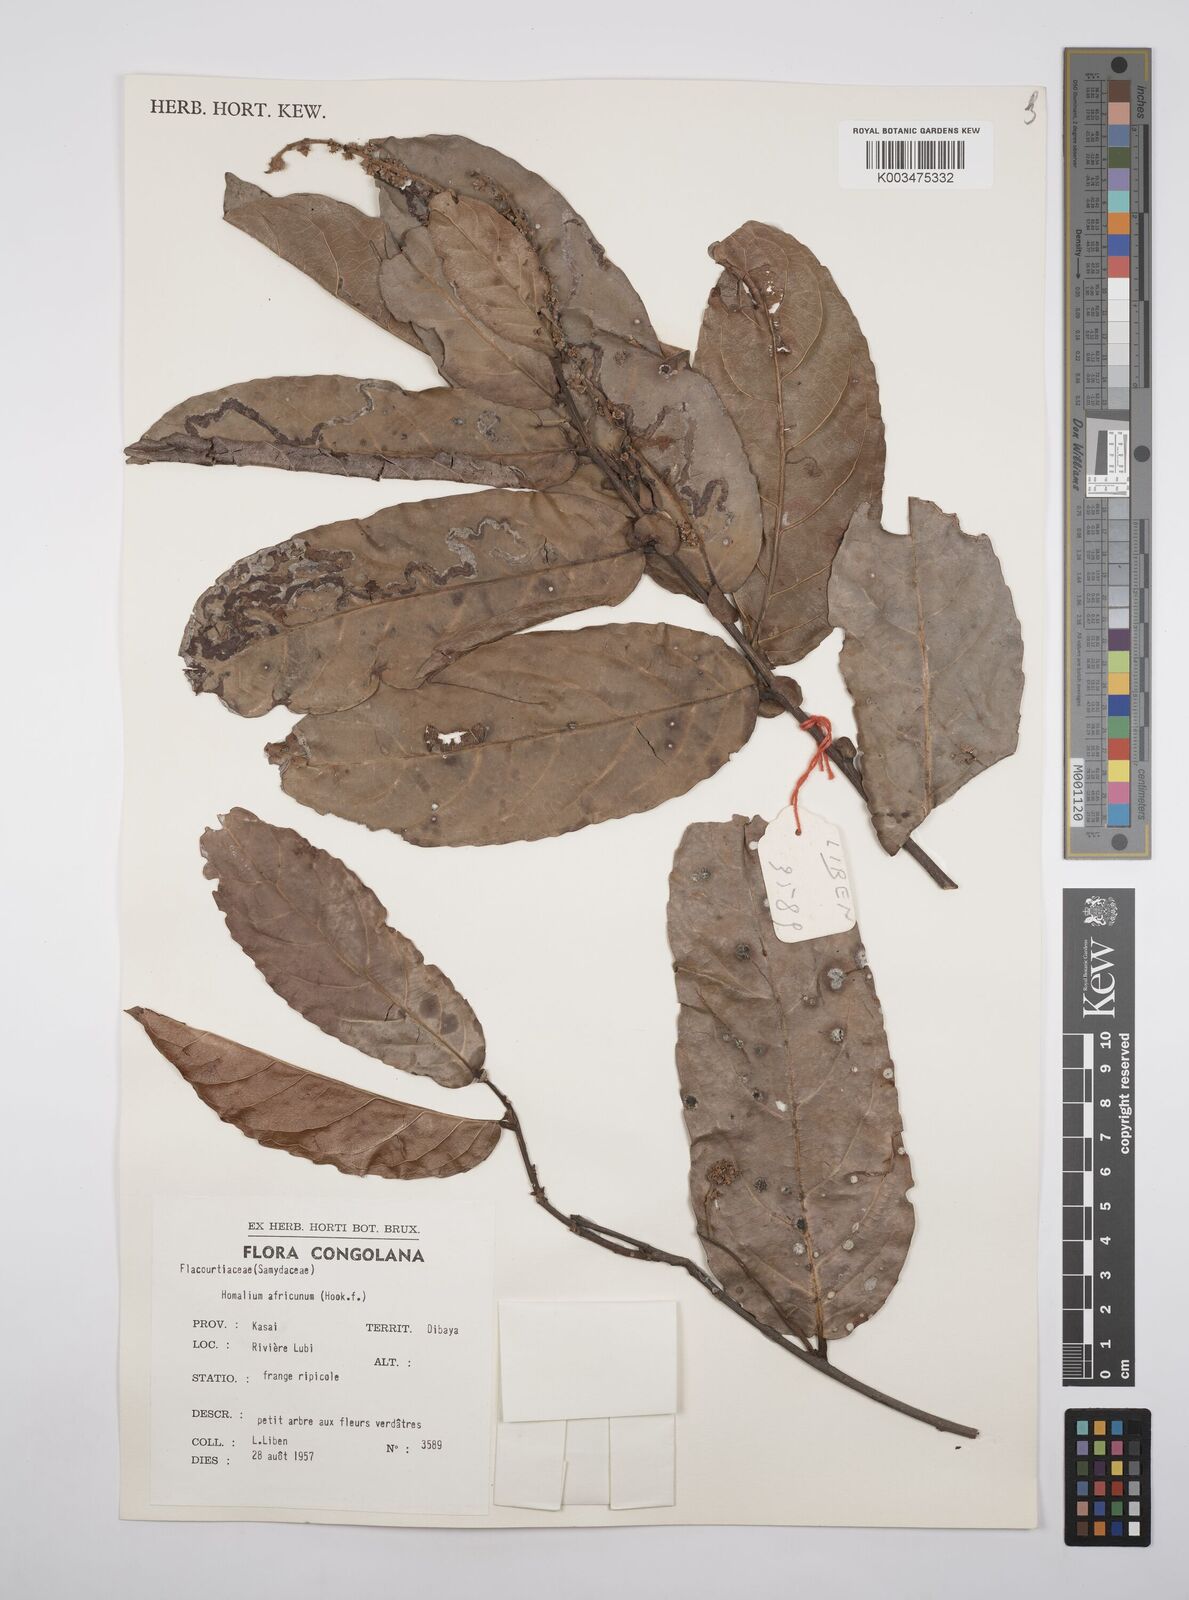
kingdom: Plantae
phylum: Tracheophyta
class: Magnoliopsida
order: Malpighiales
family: Salicaceae
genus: Homalium
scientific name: Homalium africanum
